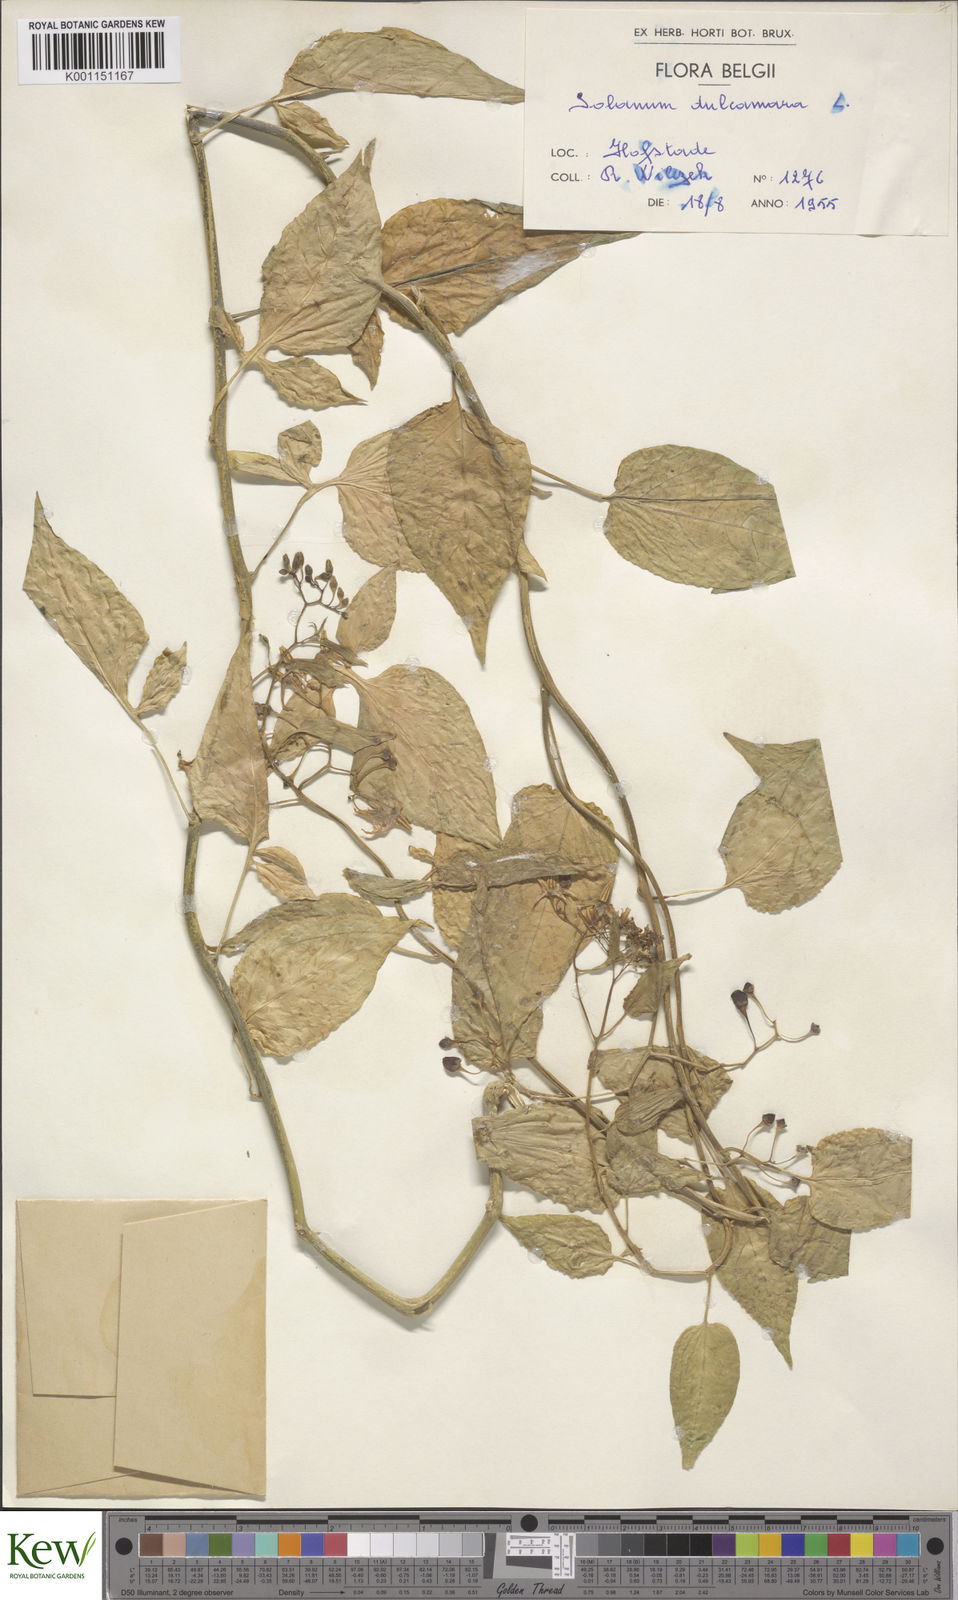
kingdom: Plantae
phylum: Tracheophyta
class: Magnoliopsida
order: Solanales
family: Solanaceae
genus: Solanum
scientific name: Solanum dulcamara
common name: Climbing nightshade
